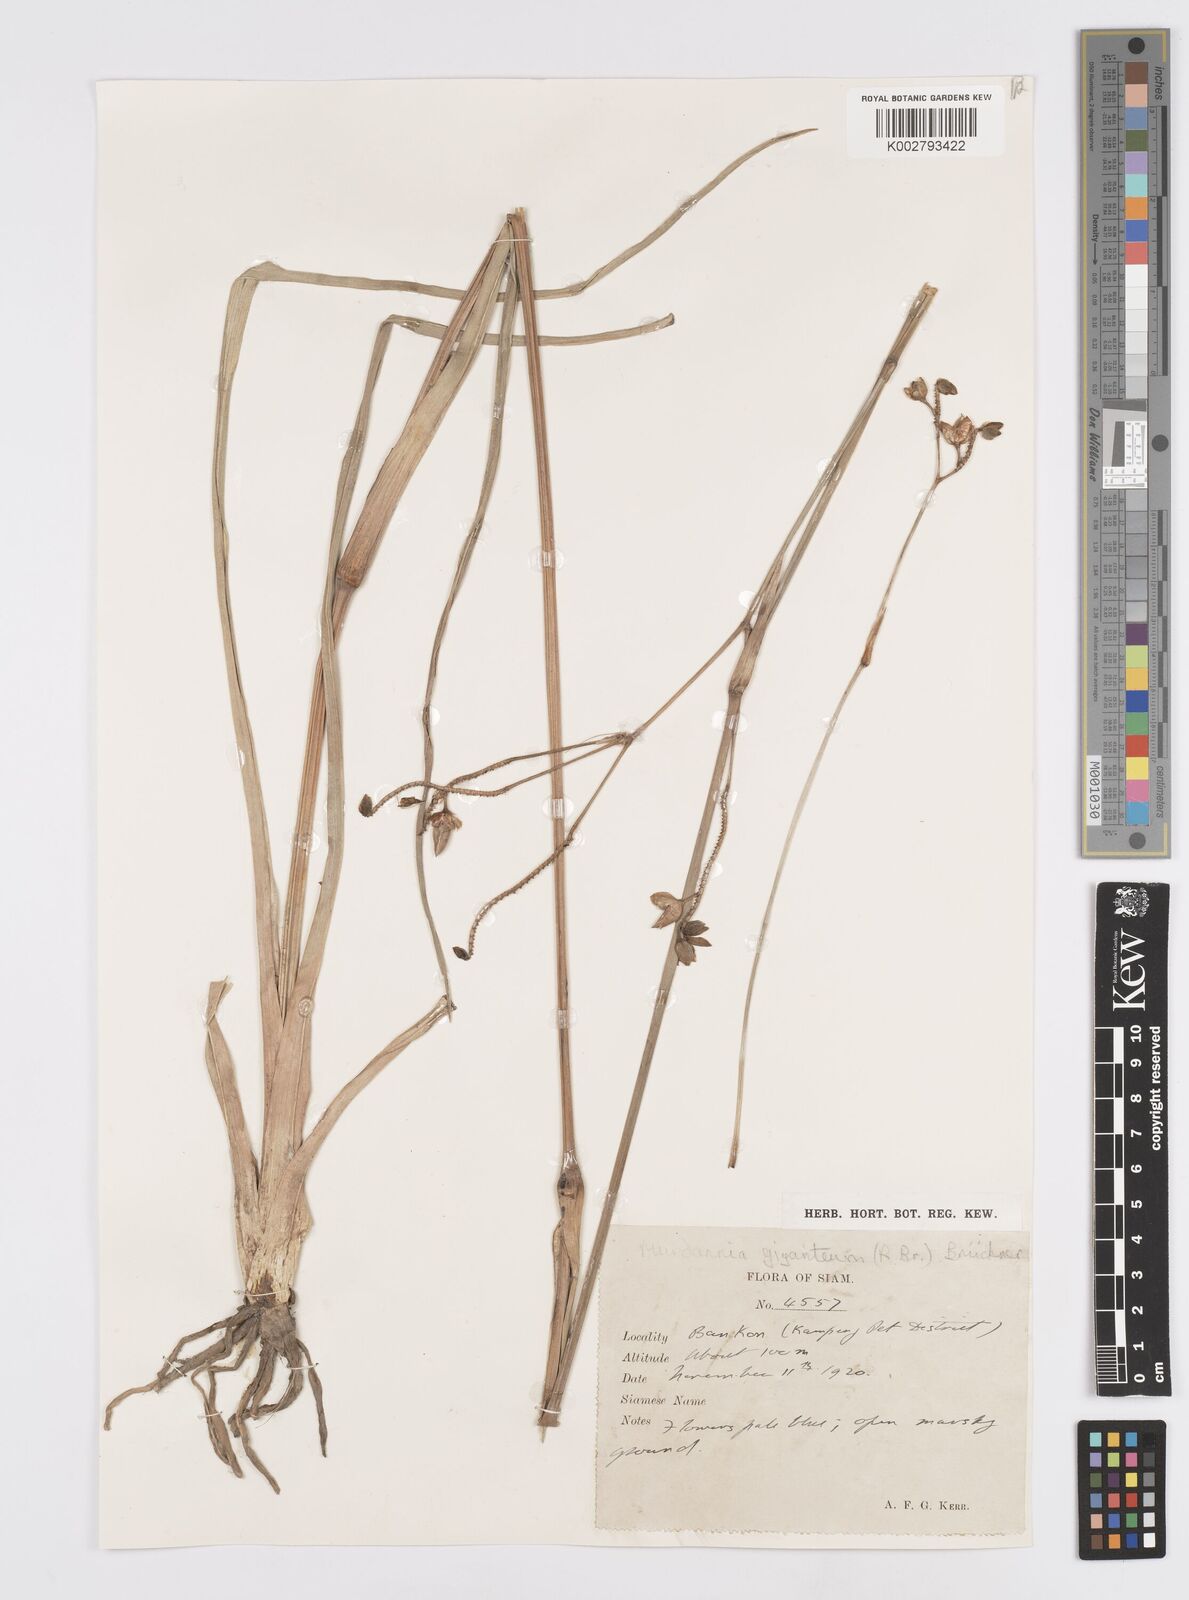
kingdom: Plantae
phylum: Tracheophyta
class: Liliopsida
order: Commelinales
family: Commelinaceae
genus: Murdannia
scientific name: Murdannia gigantea
